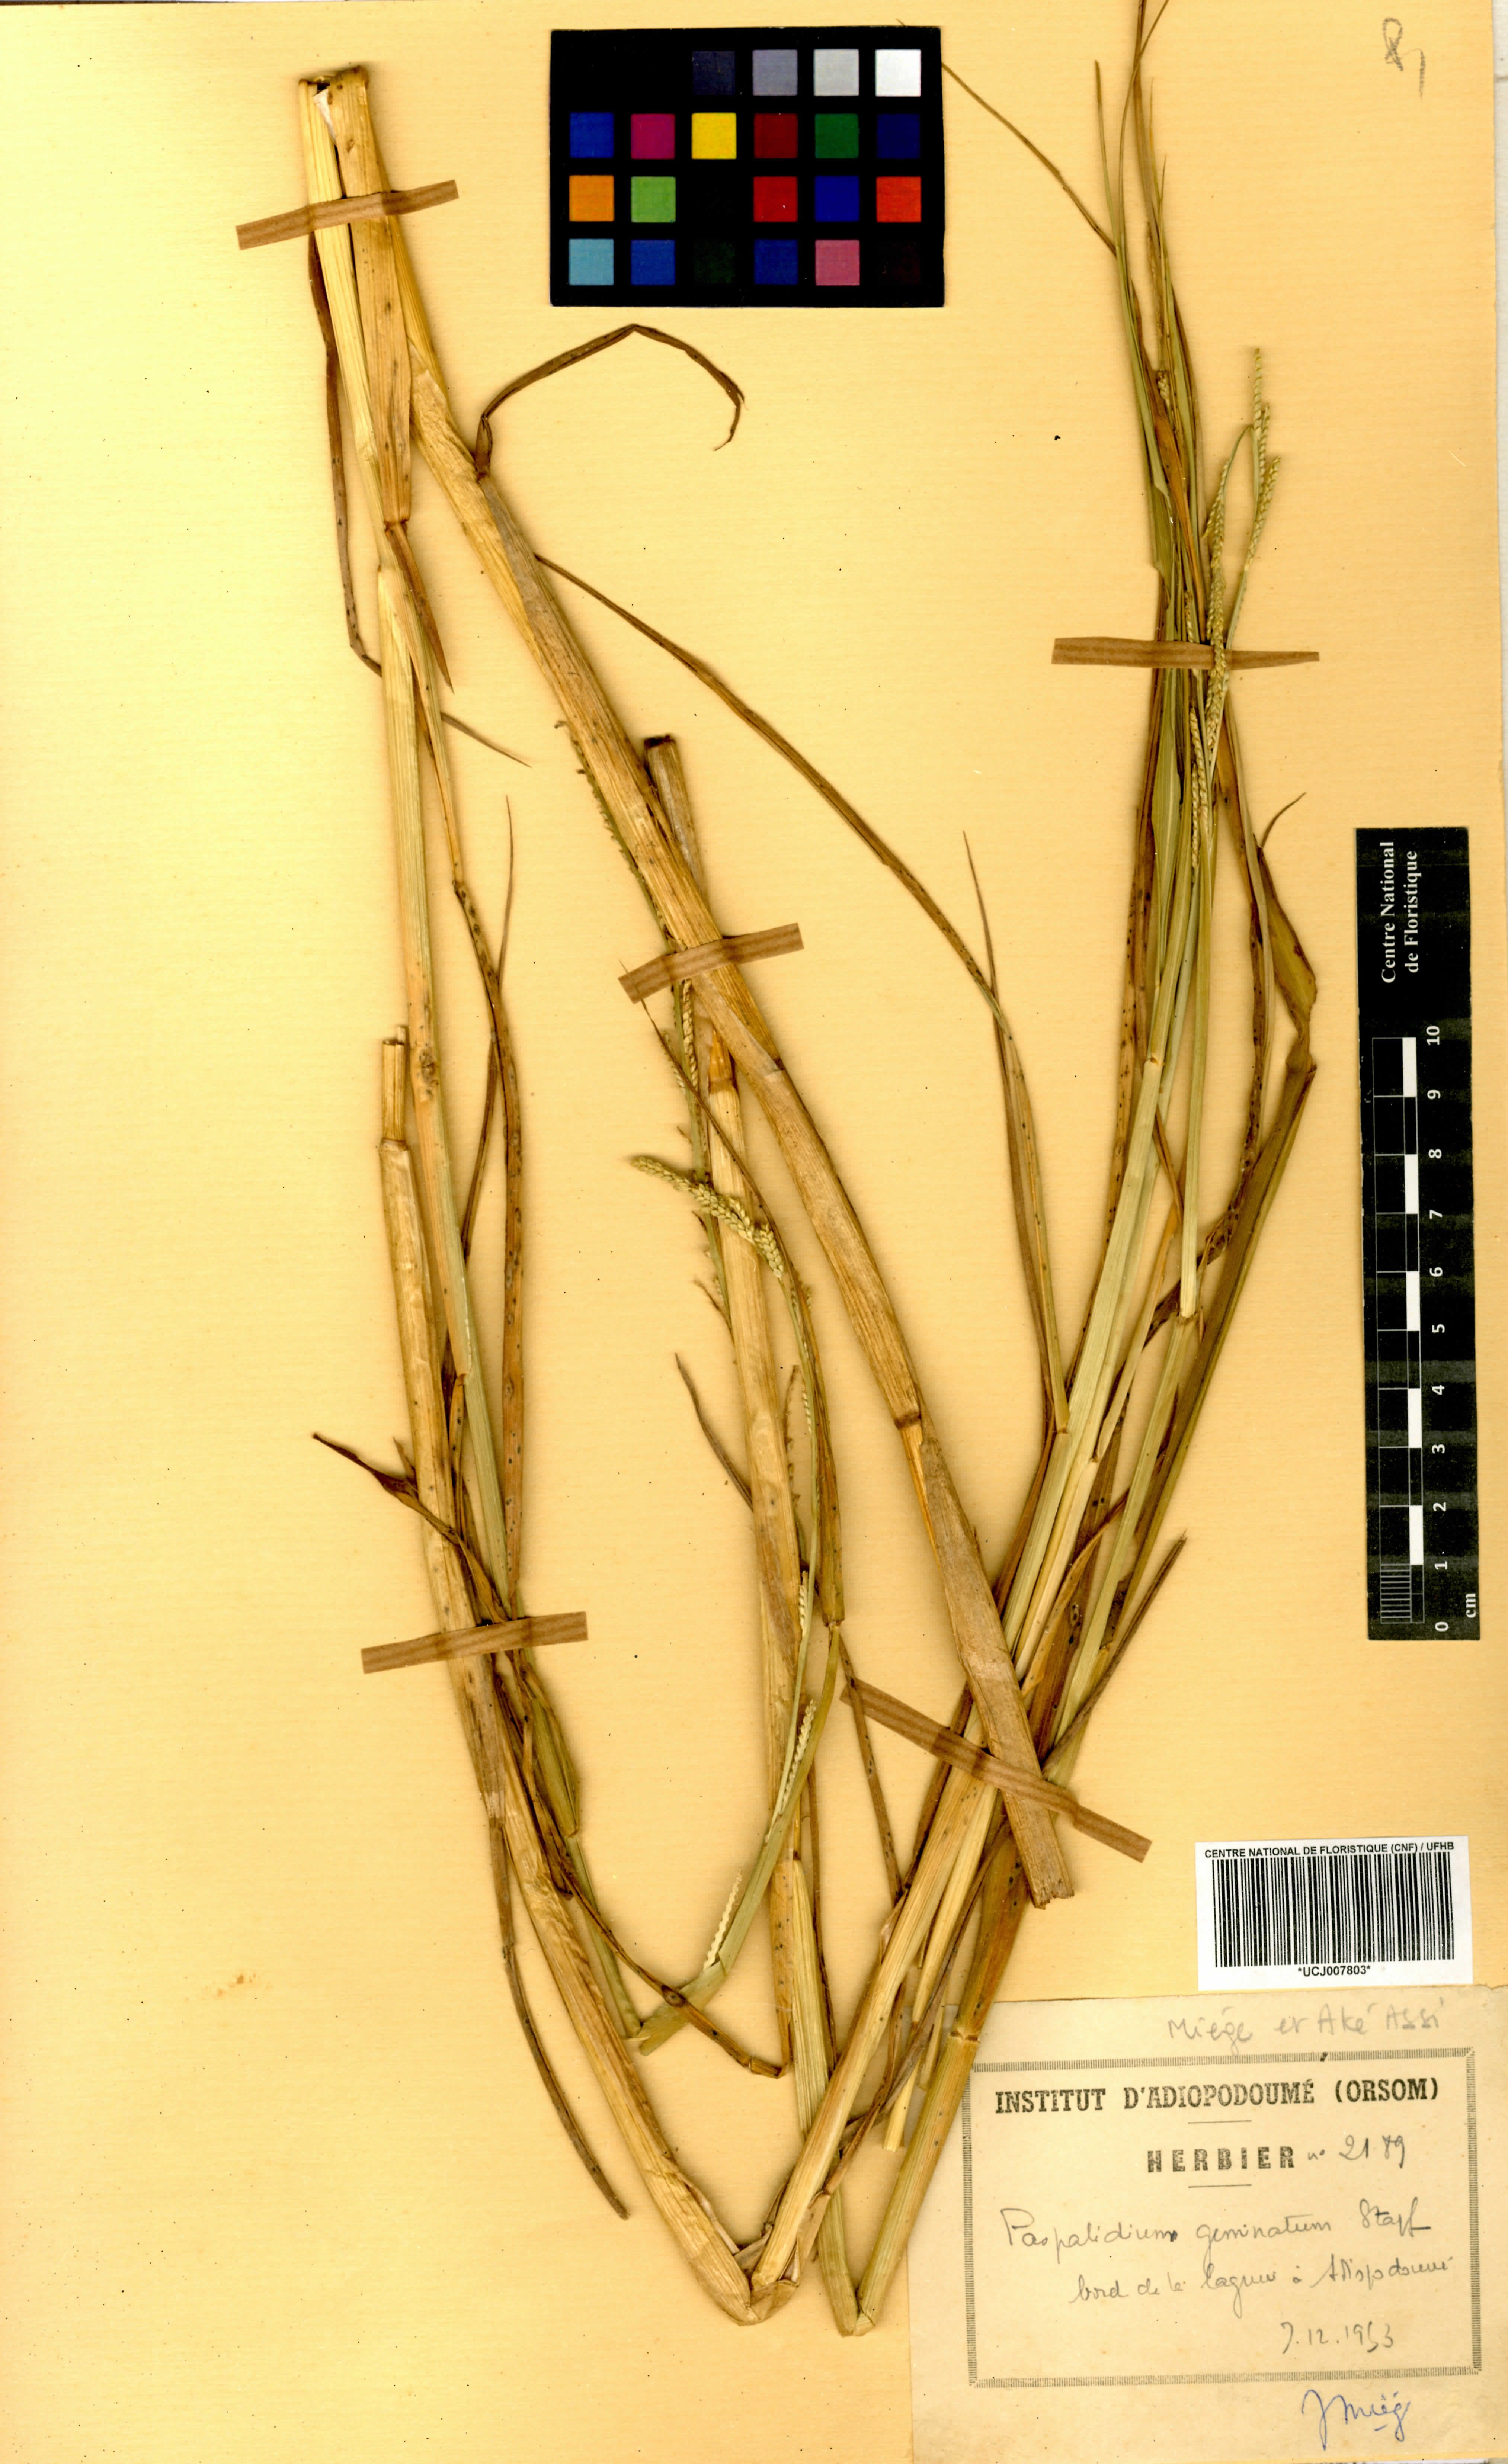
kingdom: Plantae
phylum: Tracheophyta
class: Liliopsida
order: Poales
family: Poaceae
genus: Setaria
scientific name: Setaria geminata
